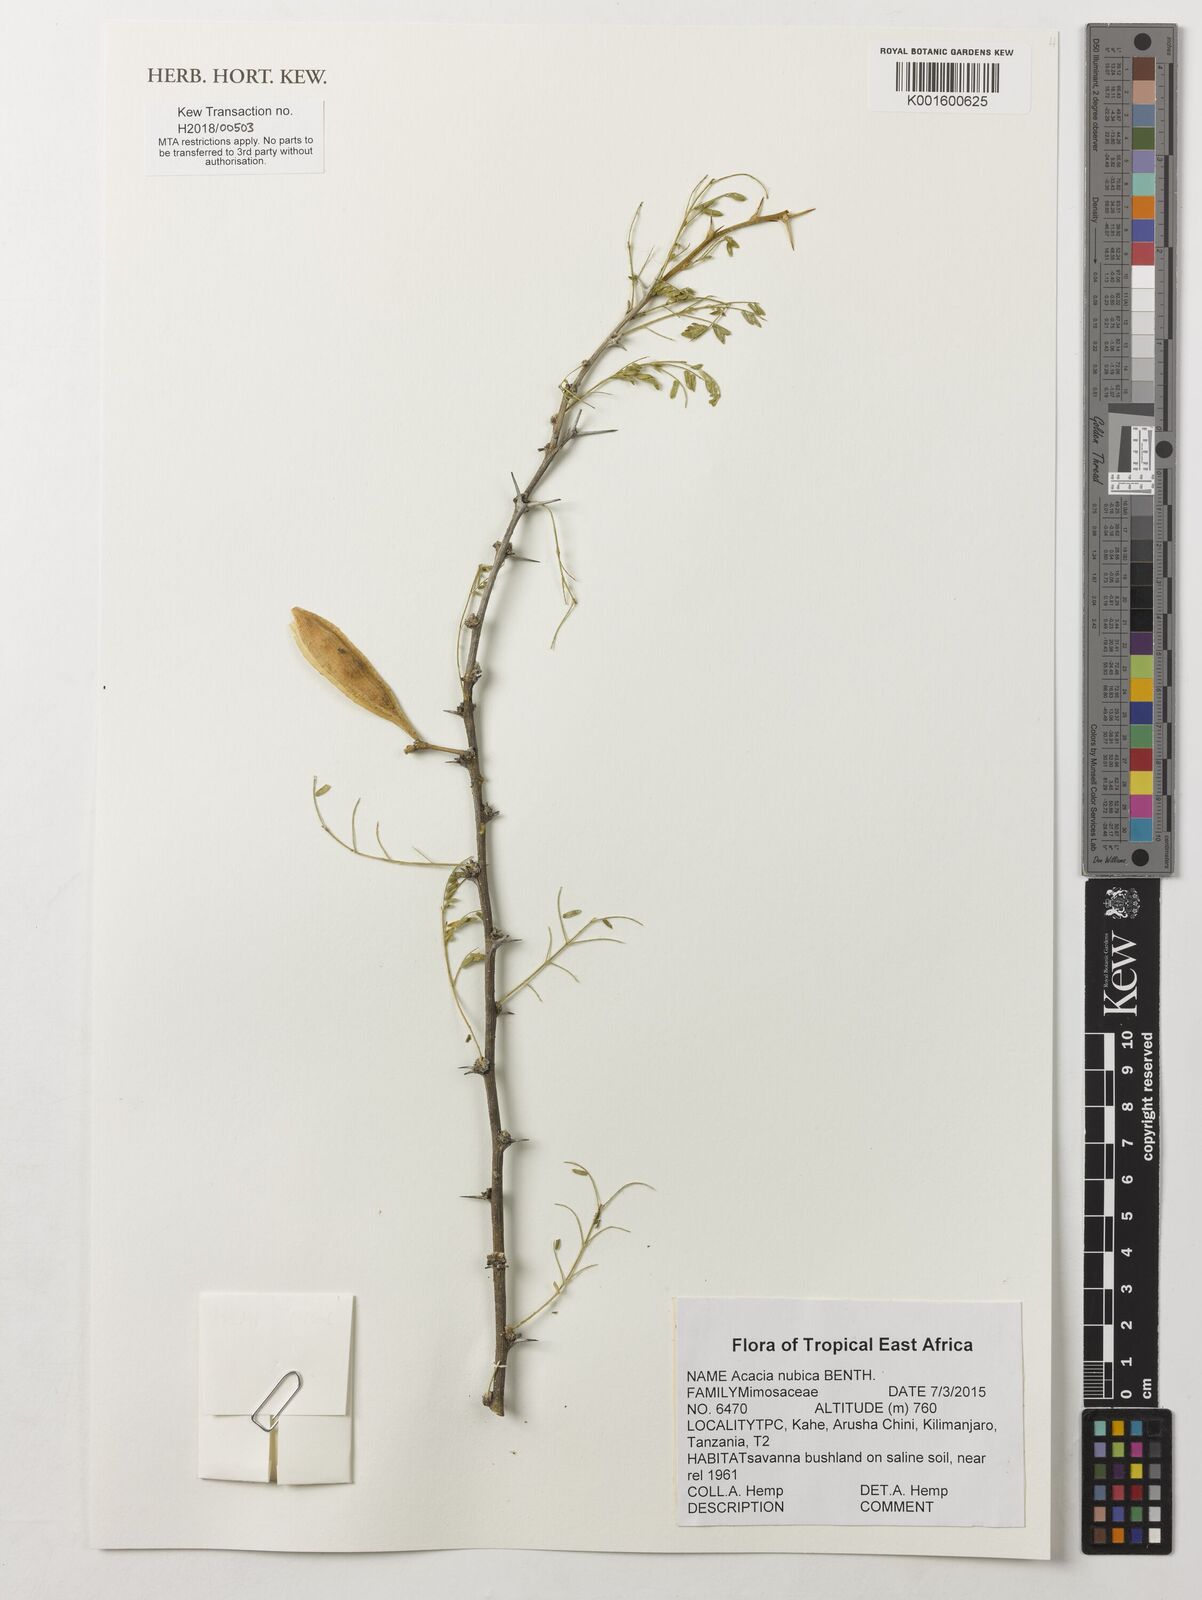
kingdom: Plantae
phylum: Tracheophyta
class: Magnoliopsida
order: Fabales
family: Fabaceae
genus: Vachellia
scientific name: Vachellia oerfota
